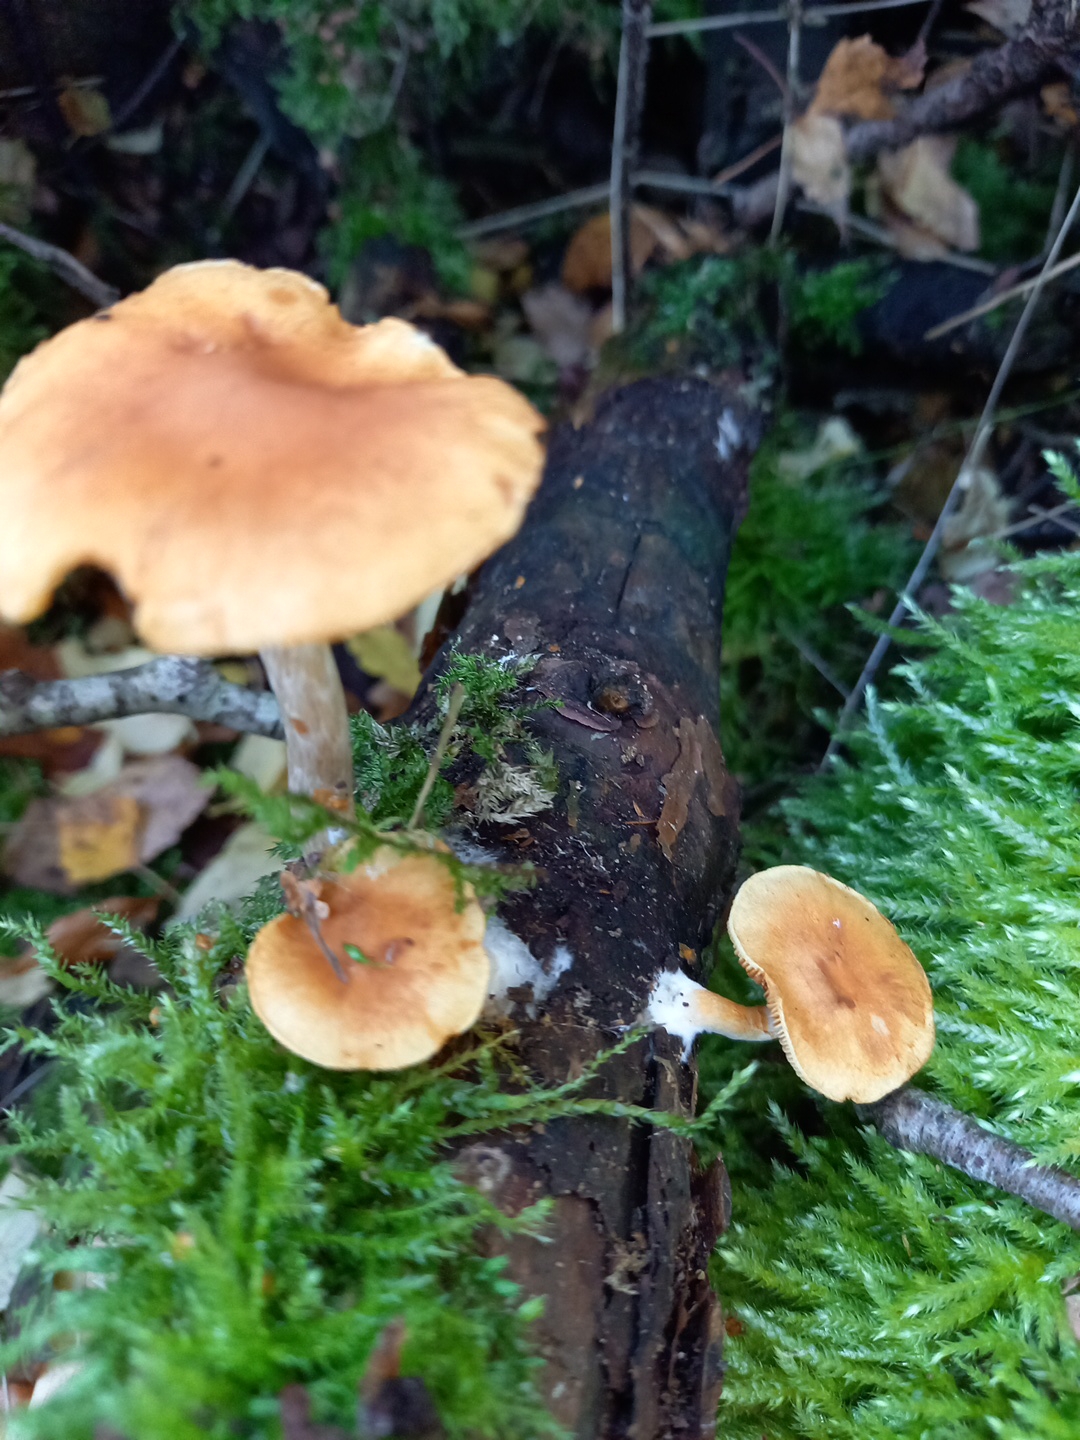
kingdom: Fungi
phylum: Basidiomycota
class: Agaricomycetes
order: Agaricales
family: Hymenogastraceae
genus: Gymnopilus
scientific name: Gymnopilus penetrans
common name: plettet flammehat
